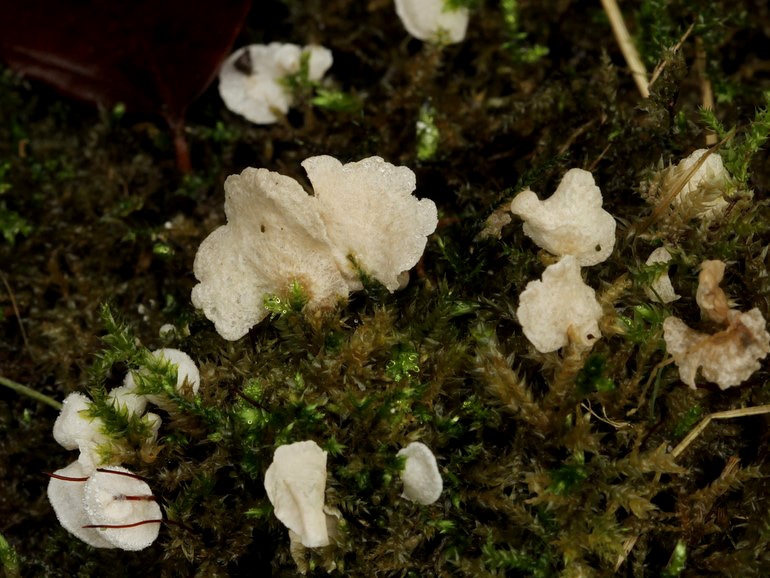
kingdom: Fungi
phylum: Basidiomycota
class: Agaricomycetes
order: Agaricales
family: Hygrophoraceae
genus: Arrhenia
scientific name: Arrhenia retiruga
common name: lille fontænehat
